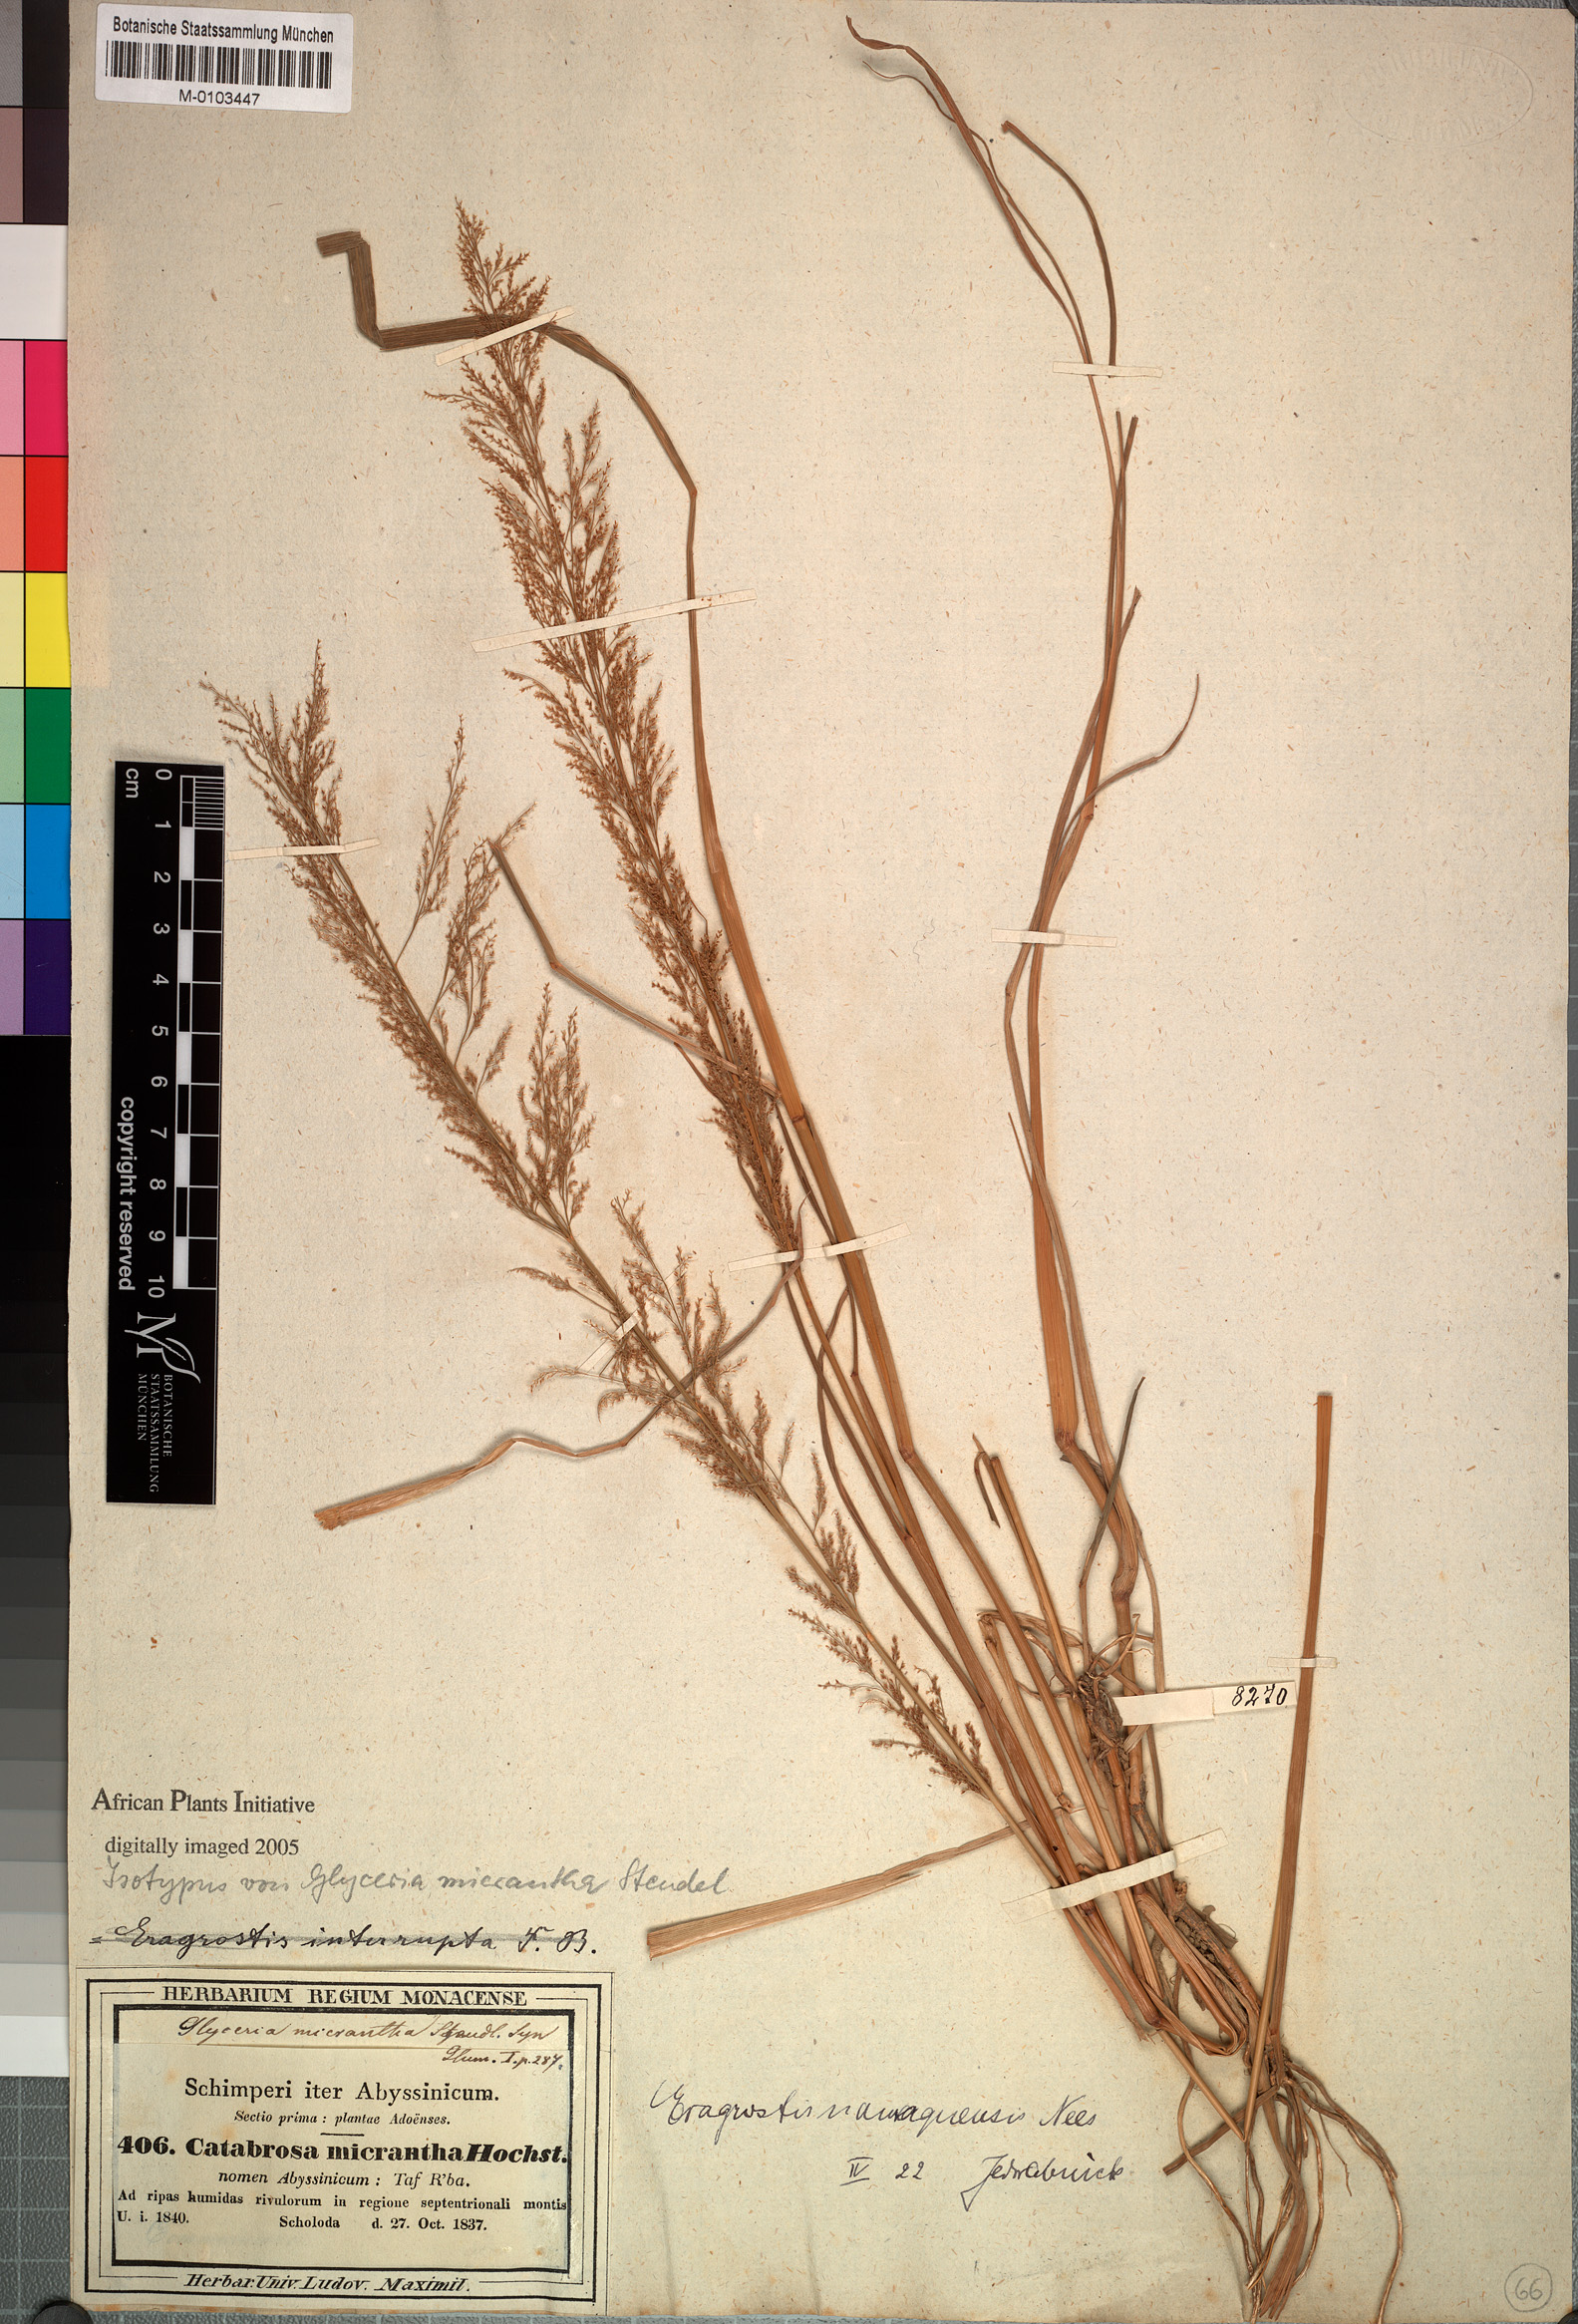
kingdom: Plantae
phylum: Tracheophyta
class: Liliopsida
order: Poales
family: Poaceae
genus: Eragrostis
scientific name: Eragrostis japonica
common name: Pond lovegrass
